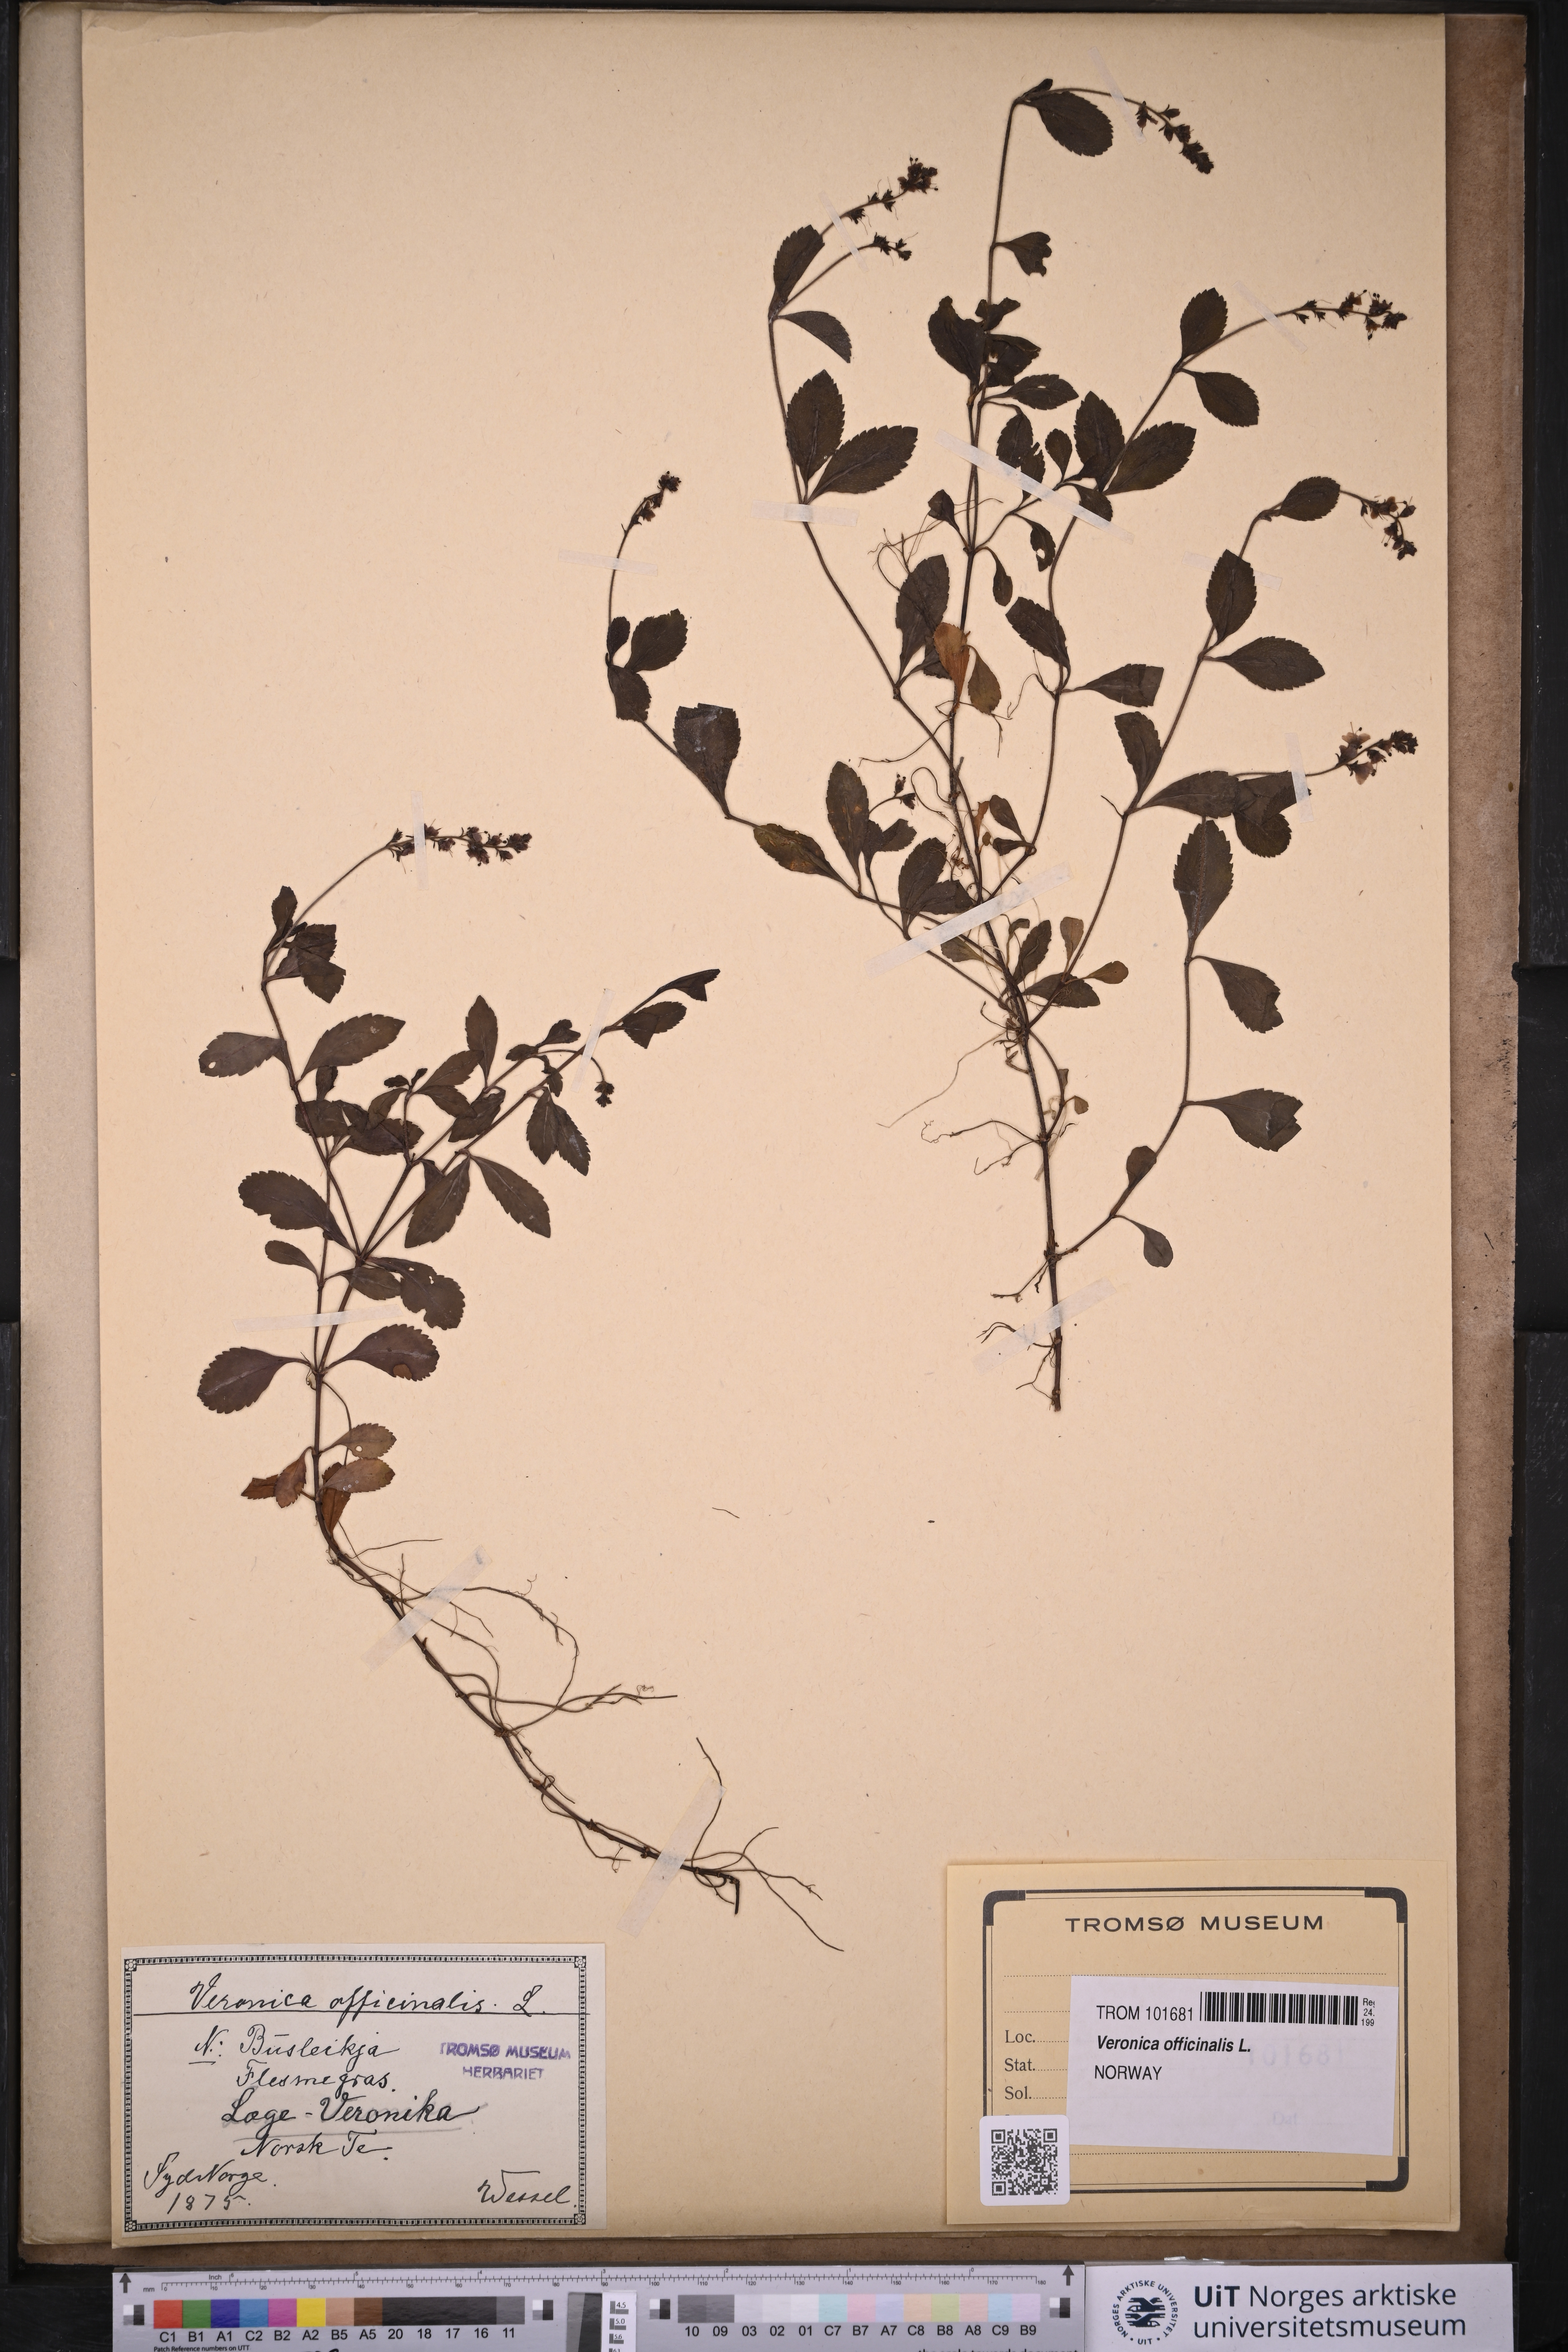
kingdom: Plantae
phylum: Tracheophyta
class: Magnoliopsida
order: Lamiales
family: Plantaginaceae
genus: Veronica
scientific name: Veronica officinalis
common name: Common speedwell
